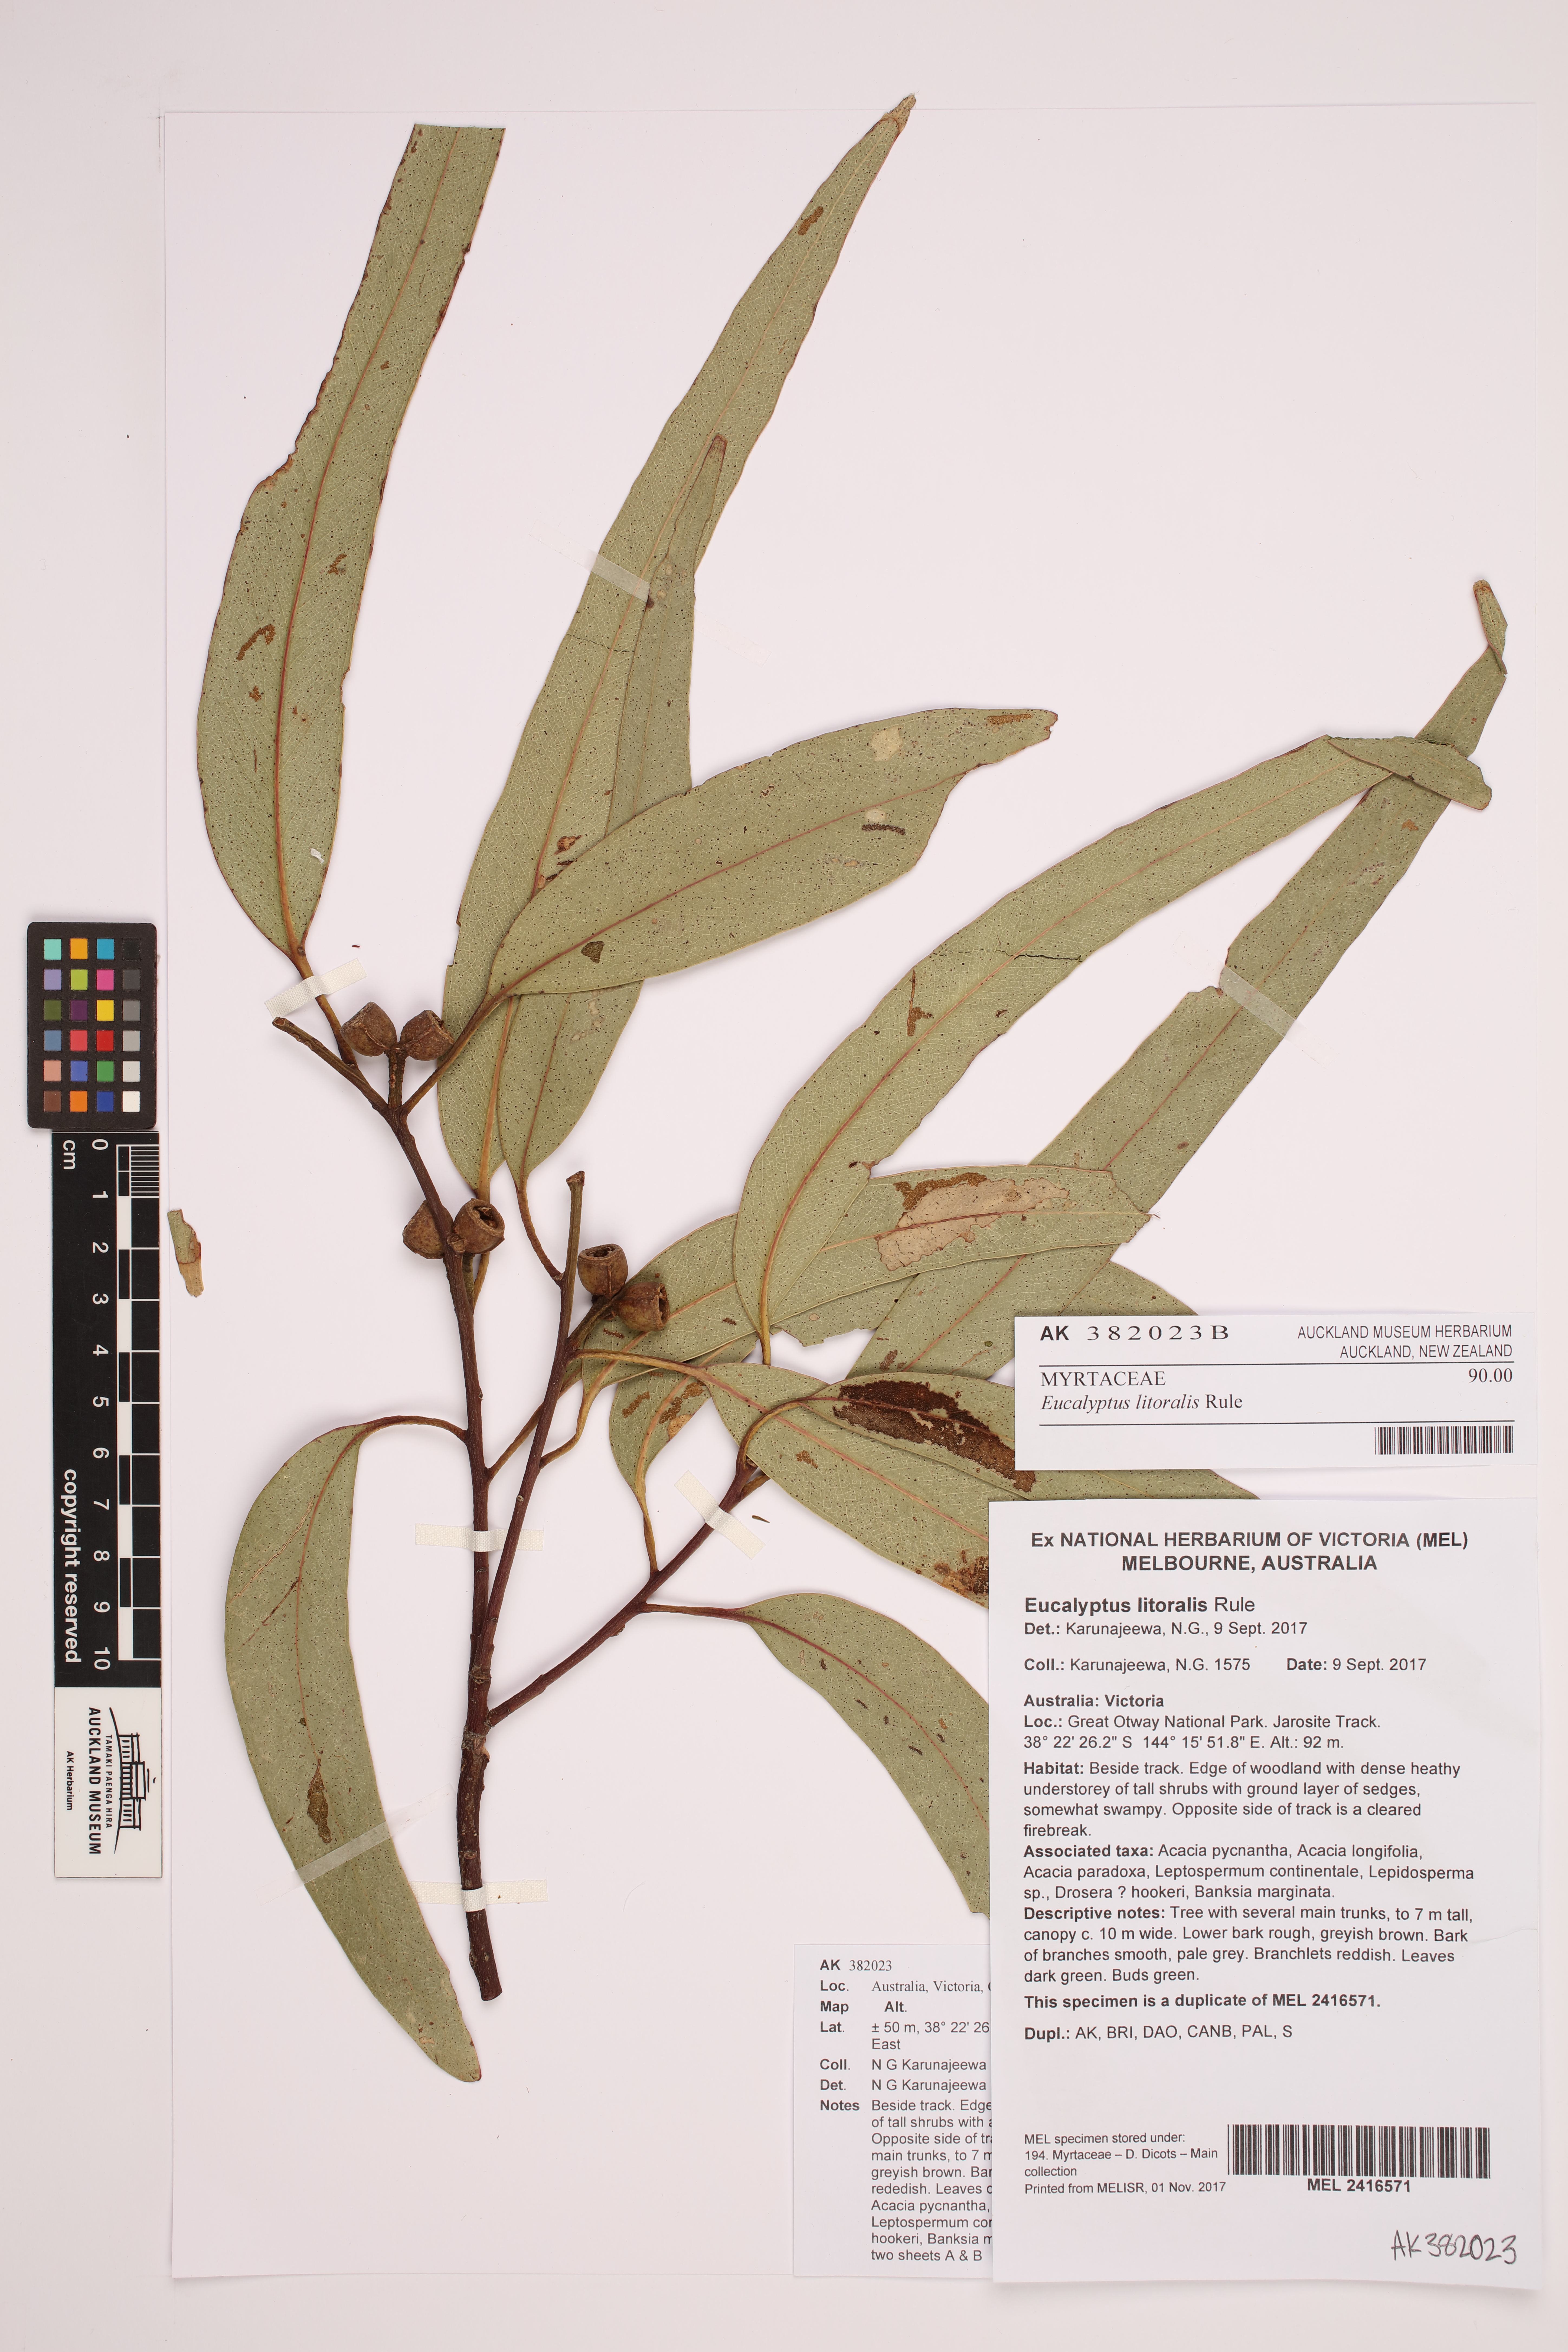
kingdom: Plantae
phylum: Tracheophyta
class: Magnoliopsida
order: Myrtales
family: Myrtaceae
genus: Eucalyptus
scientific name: Eucalyptus litoralis
